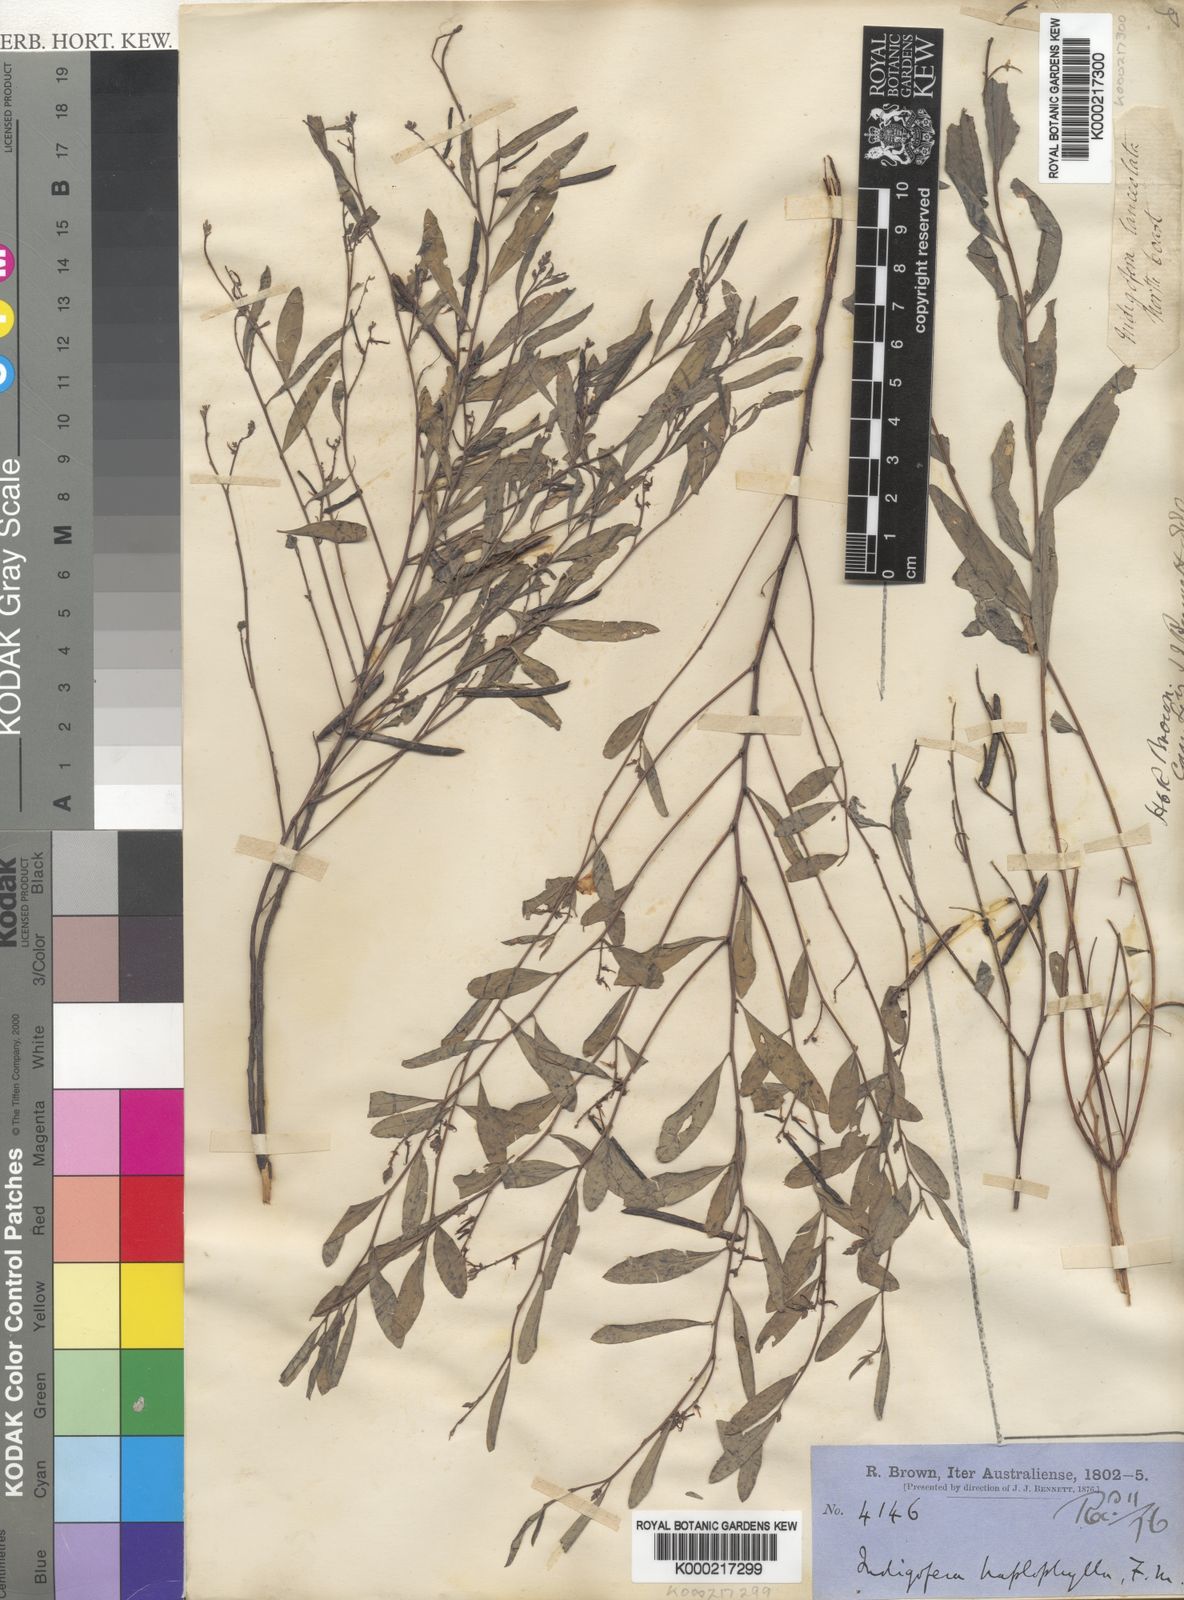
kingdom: Plantae
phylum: Tracheophyta
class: Magnoliopsida
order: Fabales
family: Fabaceae
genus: Indigofera
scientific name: Indigofera haplophylla
